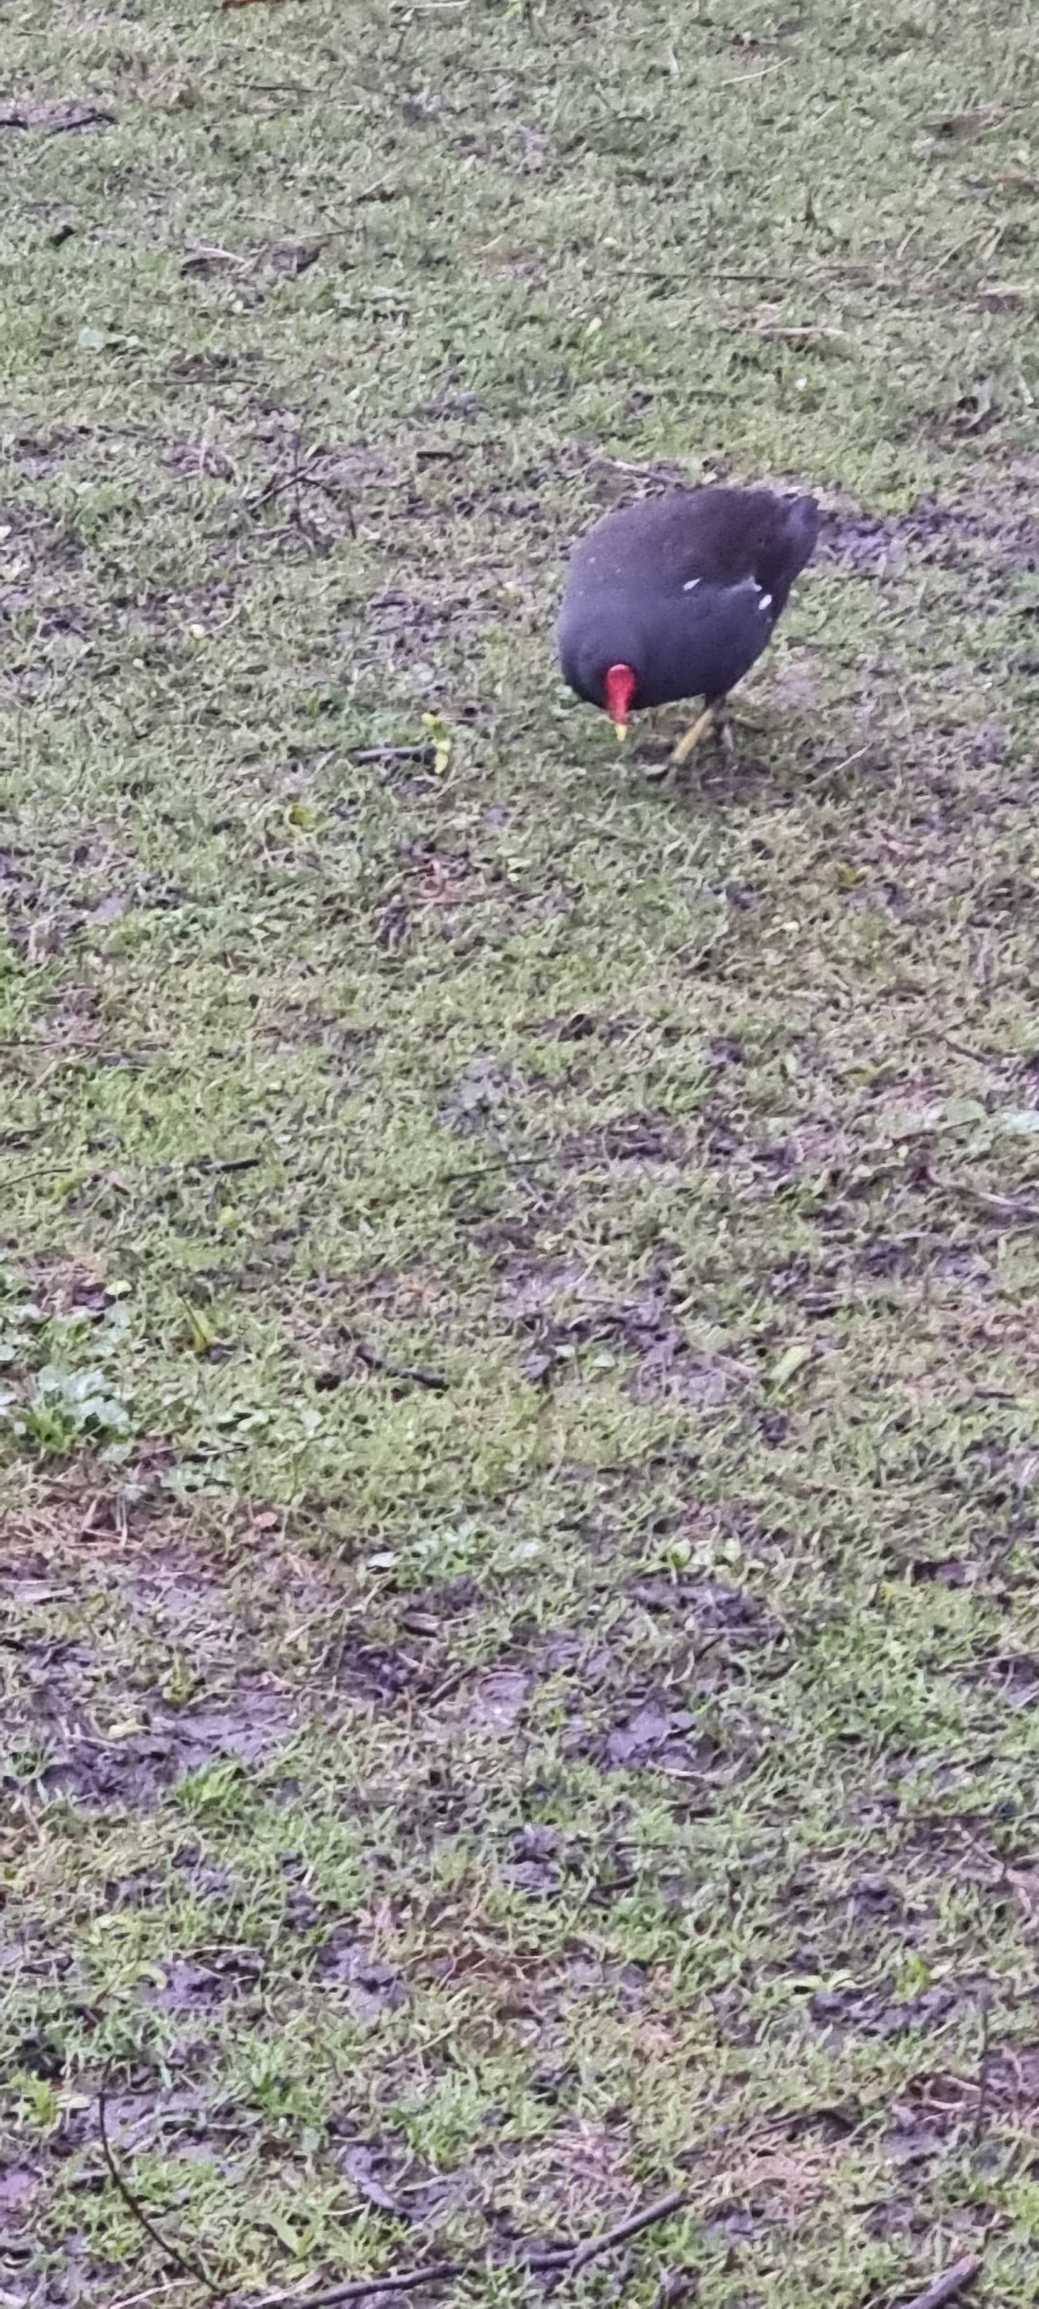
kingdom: Animalia
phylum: Chordata
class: Aves
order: Gruiformes
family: Rallidae
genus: Gallinula
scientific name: Gallinula chloropus
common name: Grønbenet rørhøne
